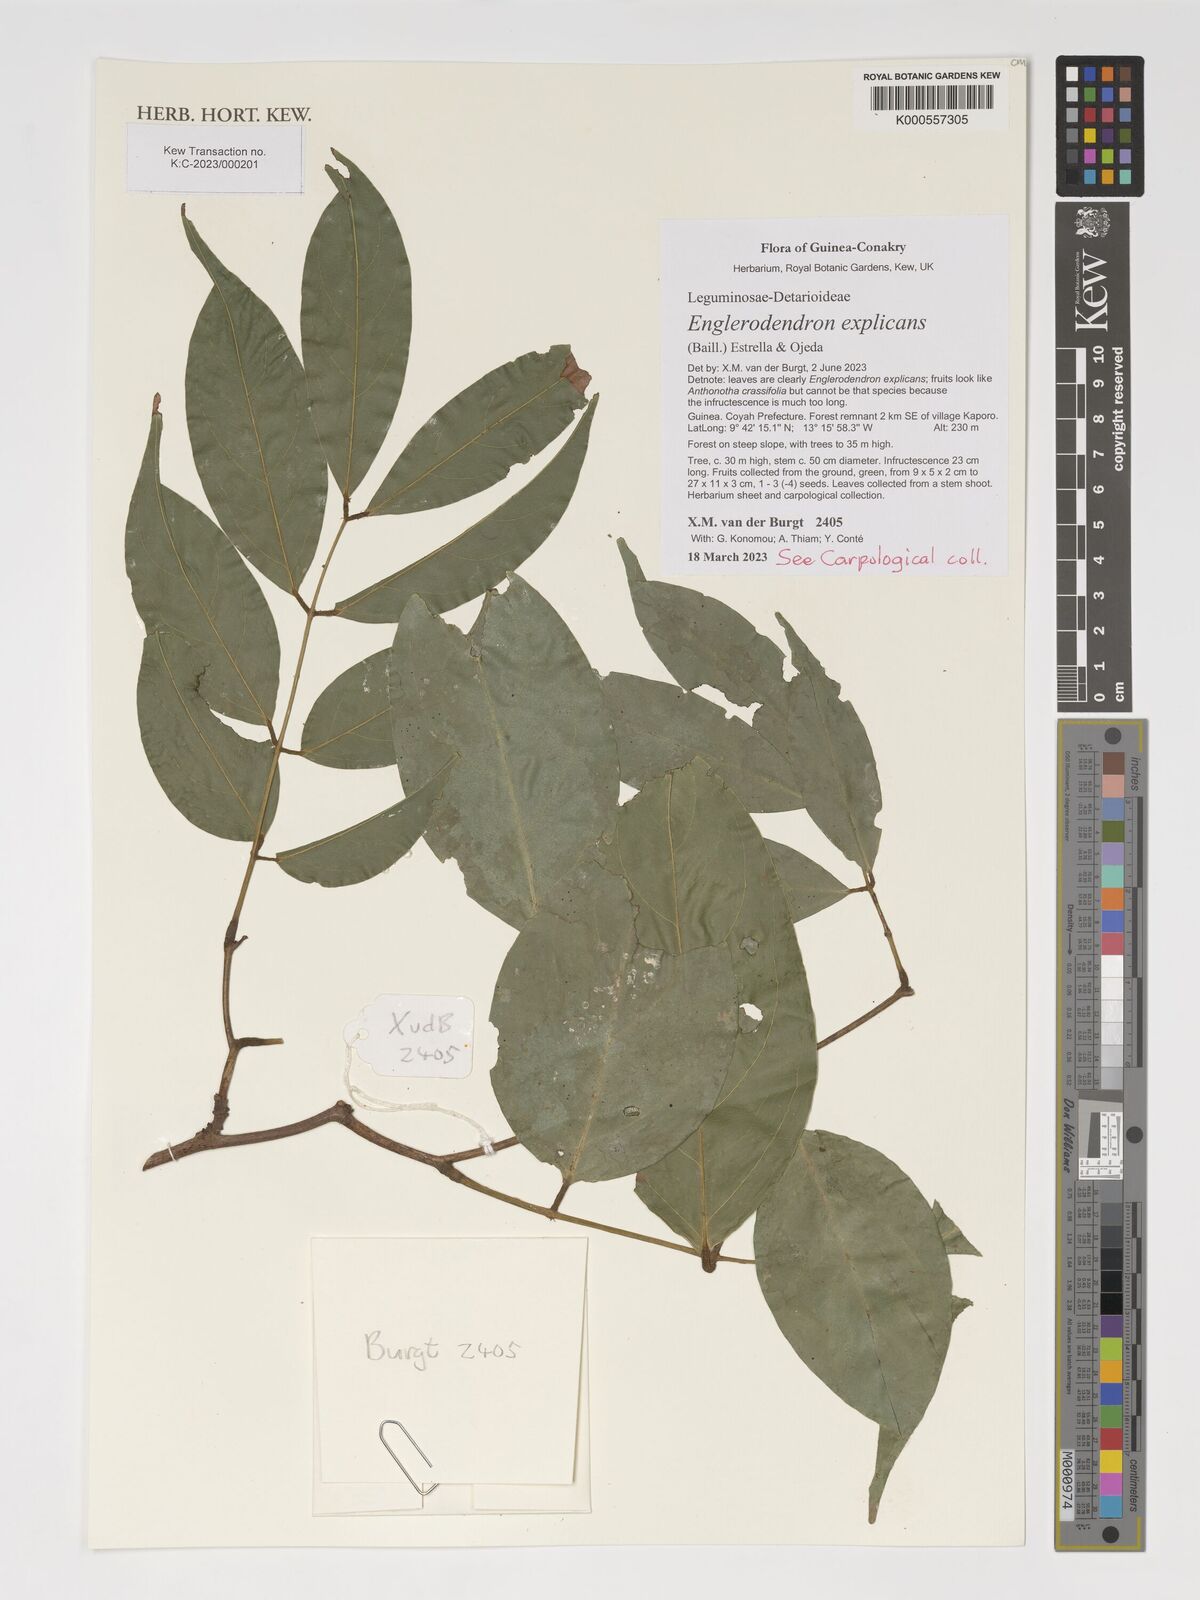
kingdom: Plantae
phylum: Tracheophyta
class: Magnoliopsida
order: Fabales
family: Fabaceae
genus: Englerodendron
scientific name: Englerodendron
